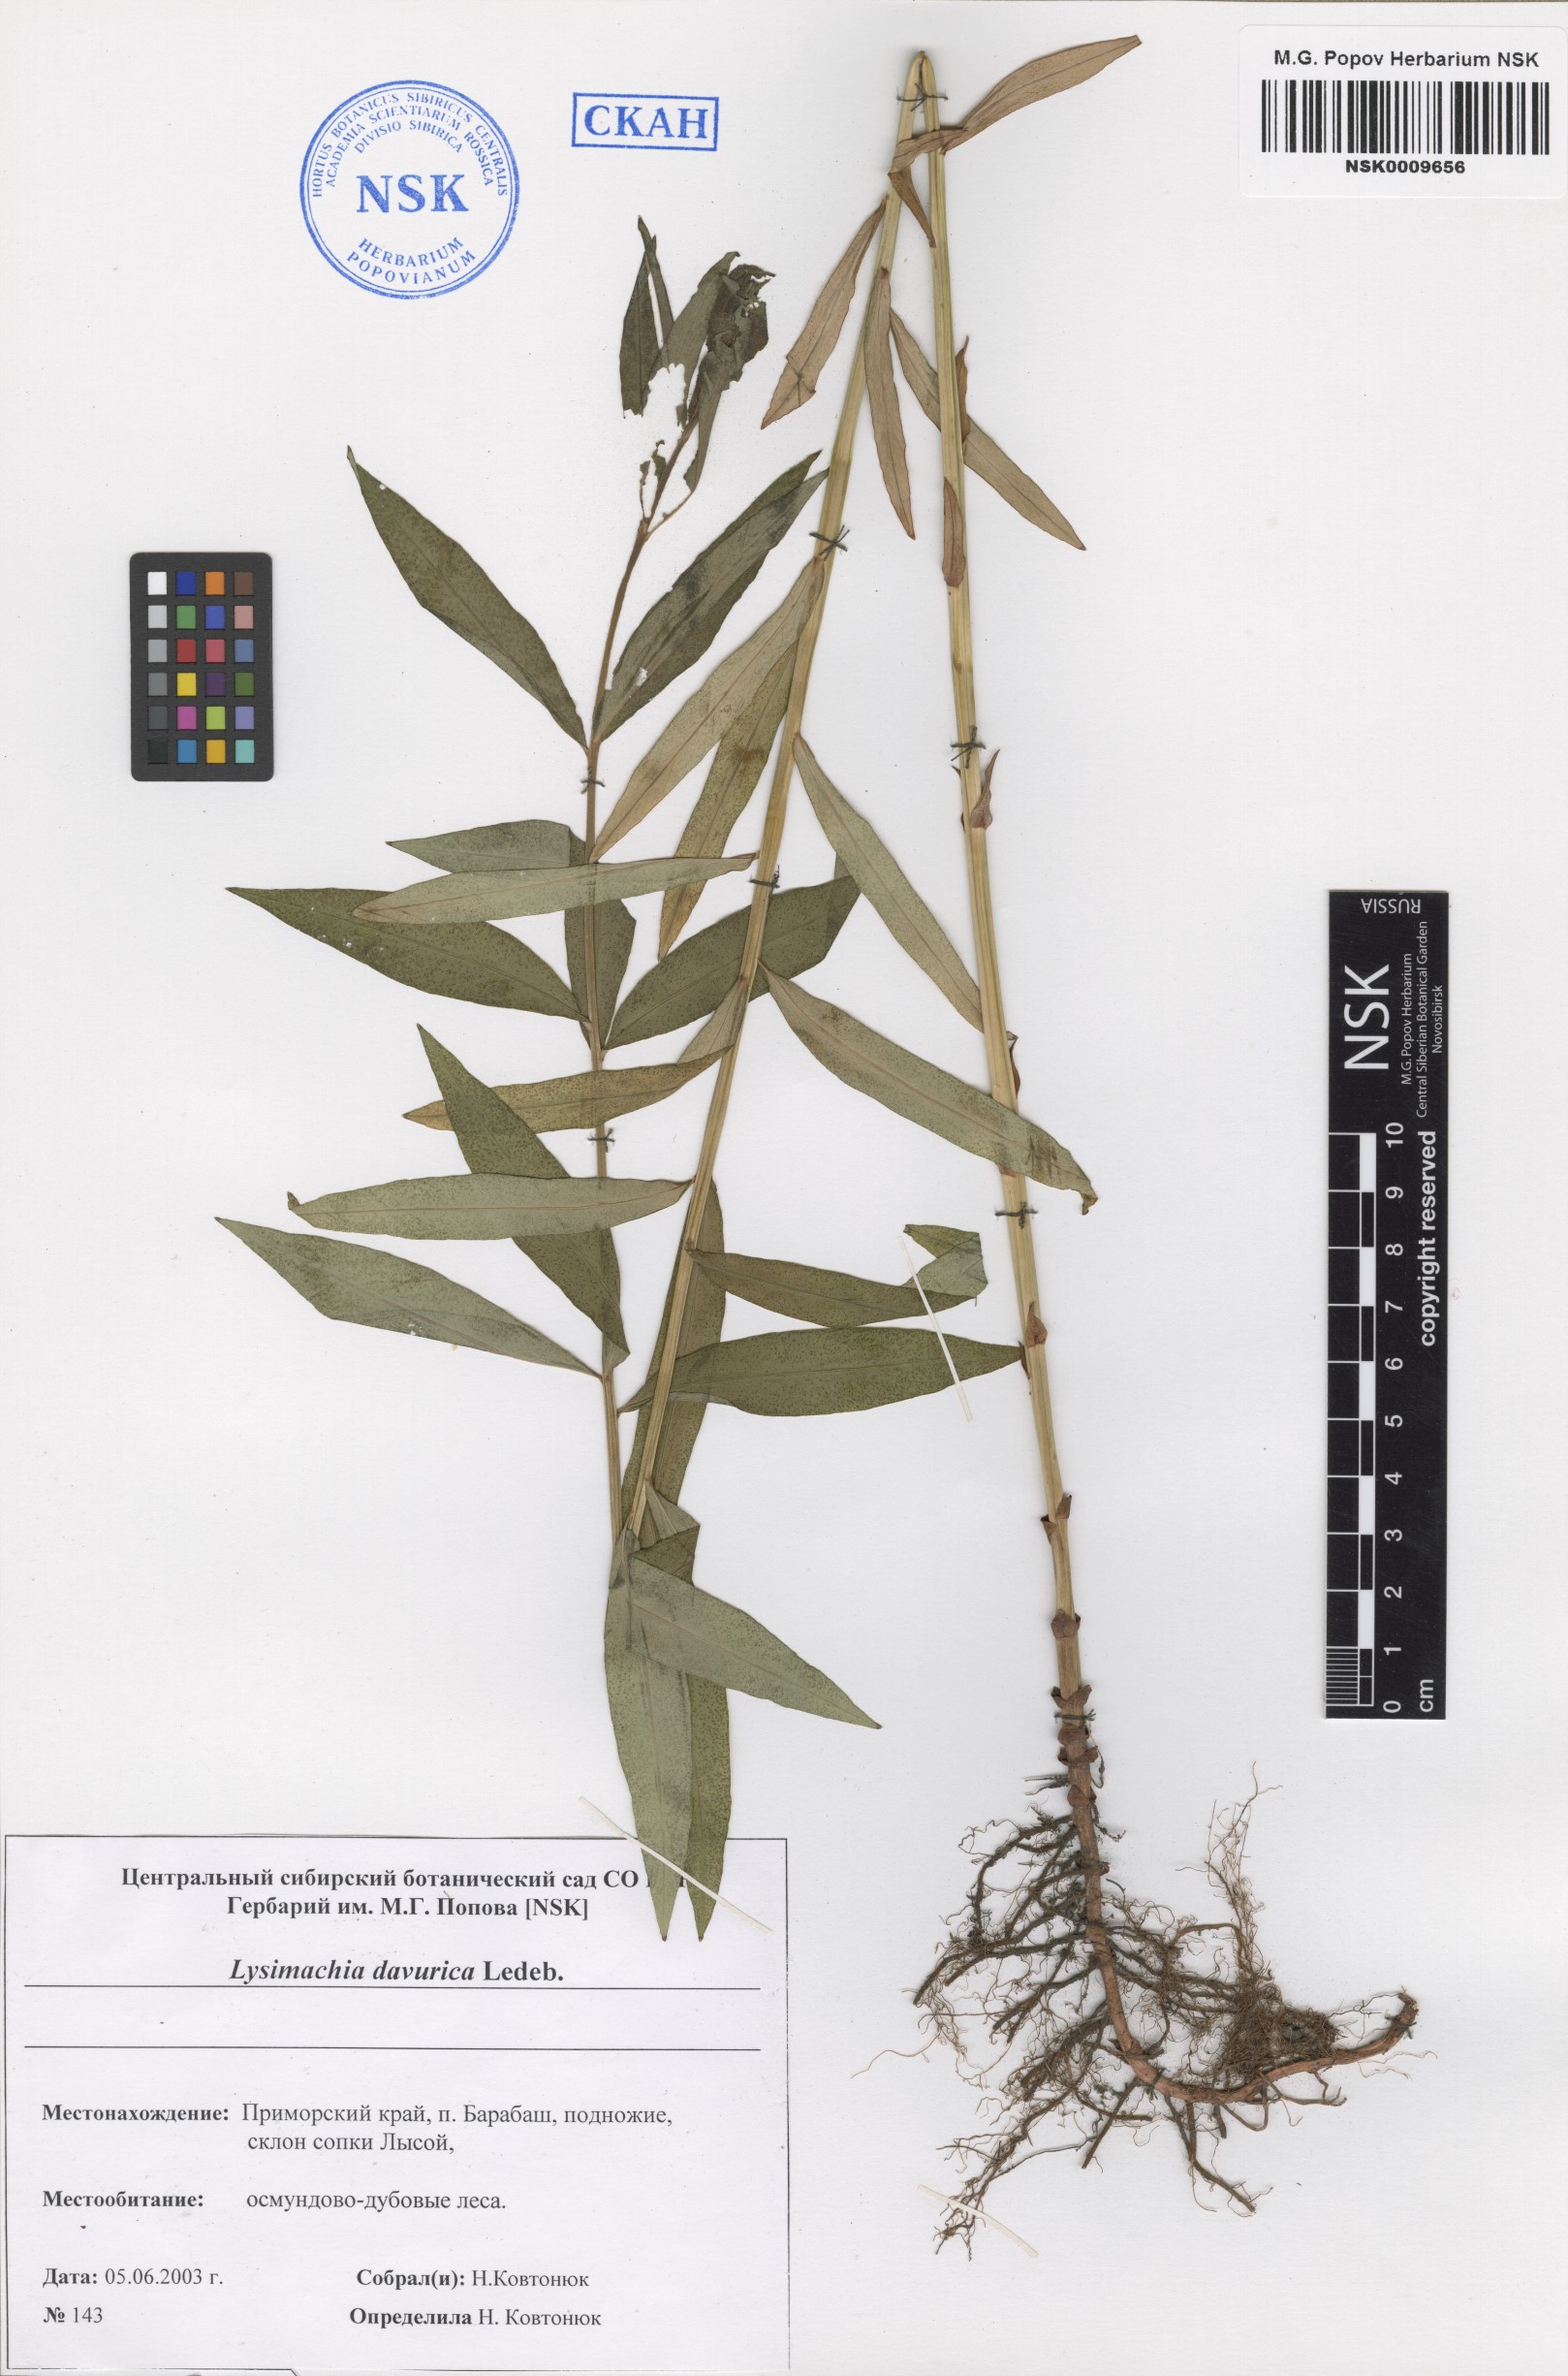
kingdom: Plantae
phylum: Tracheophyta
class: Magnoliopsida
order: Ericales
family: Primulaceae
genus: Lysimachia
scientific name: Lysimachia davurica
